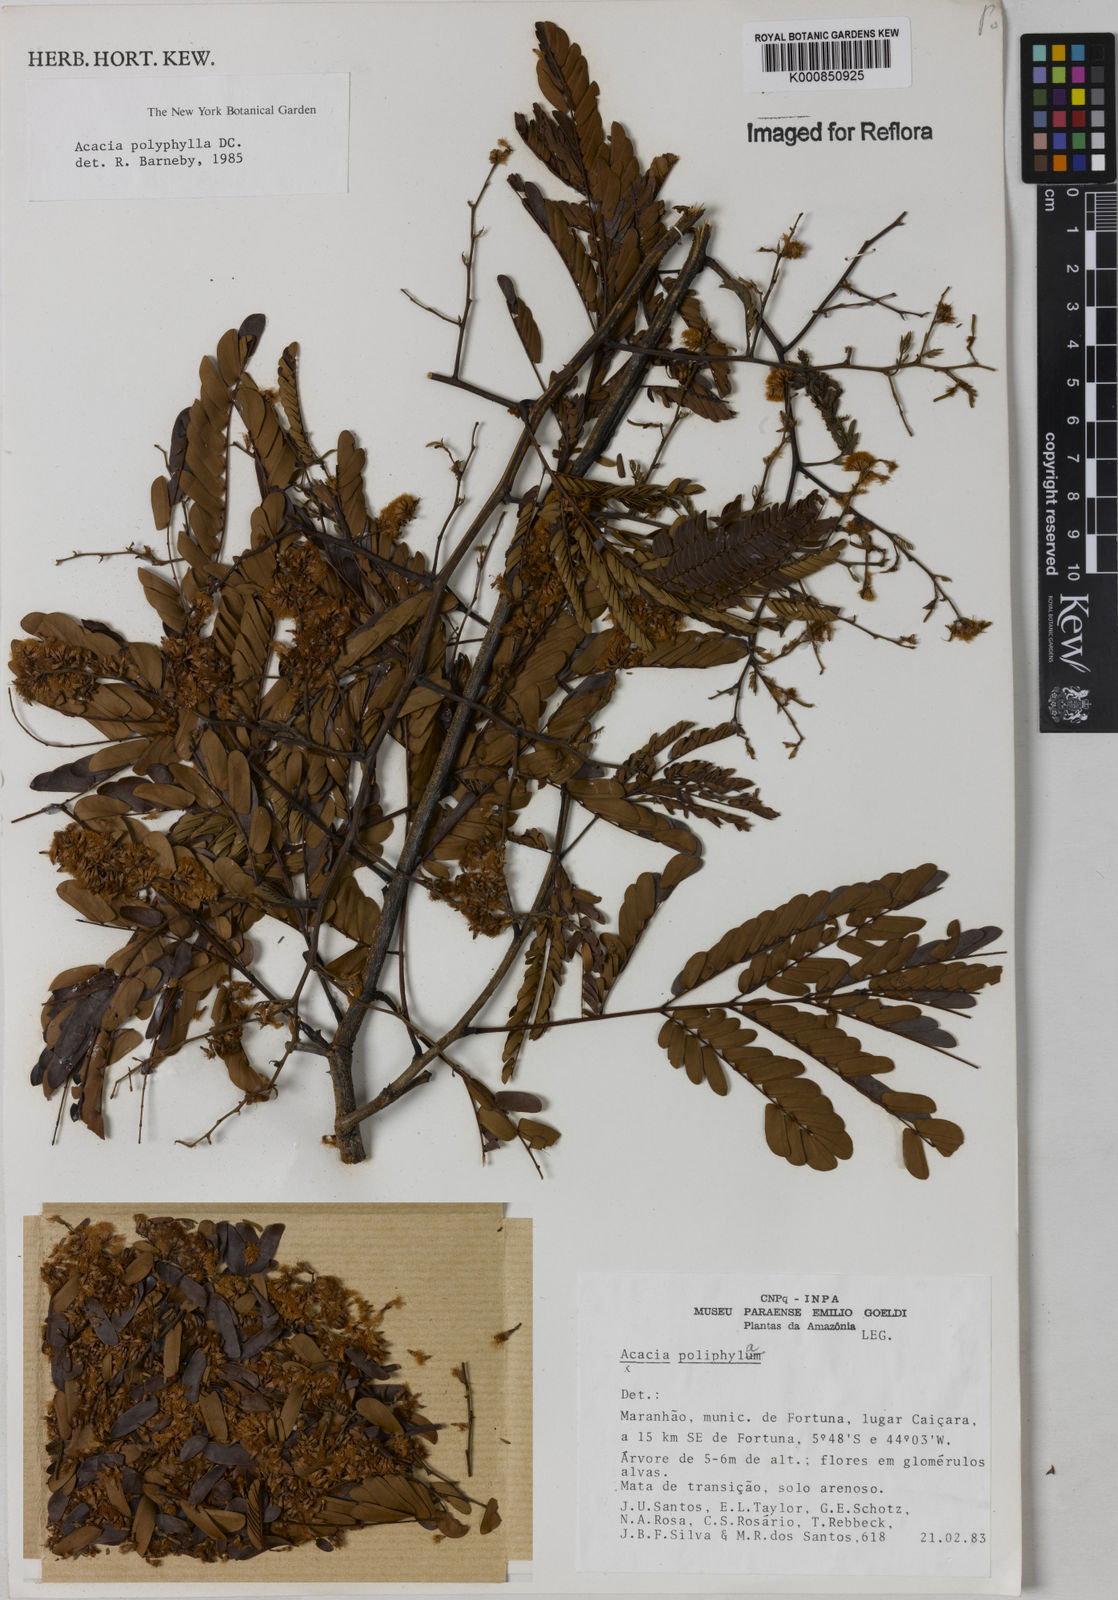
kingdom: Plantae
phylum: Tracheophyta
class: Magnoliopsida
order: Fabales
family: Fabaceae
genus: Senegalia
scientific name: Senegalia polyphylla
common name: White-tamarind
